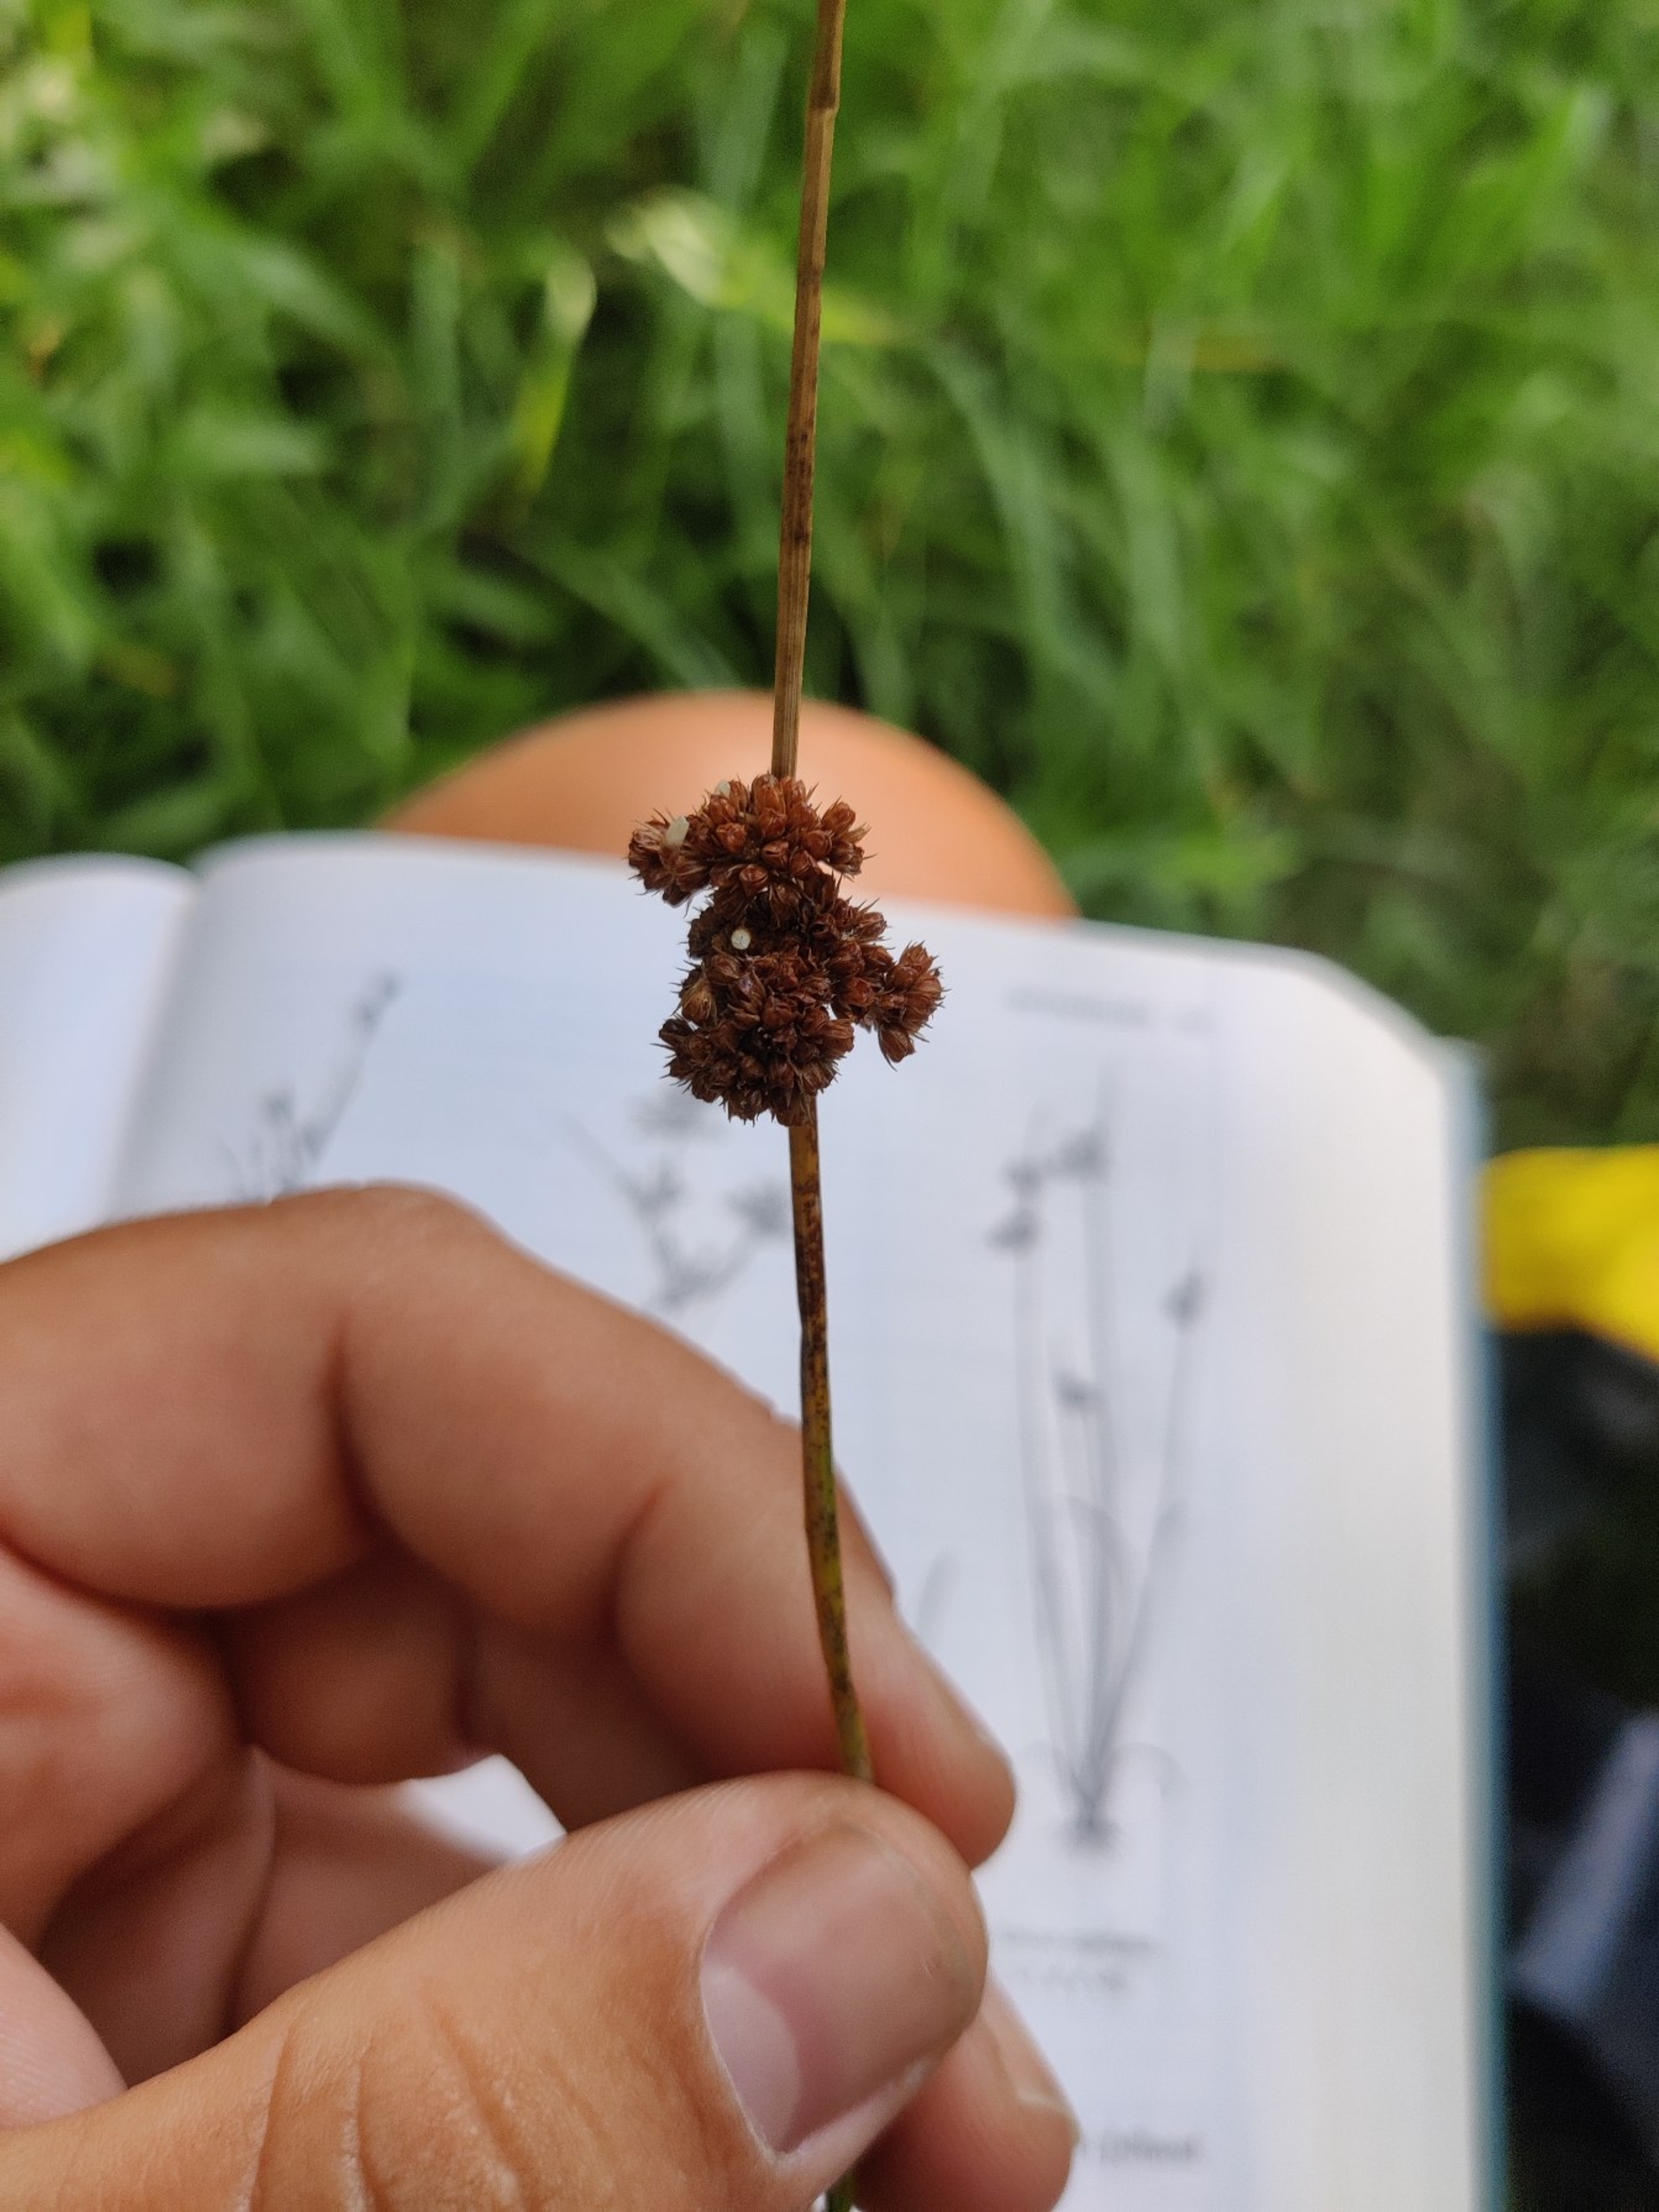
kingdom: Plantae
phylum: Tracheophyta
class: Liliopsida
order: Poales
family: Juncaceae
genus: Juncus
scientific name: Juncus conglomeratus
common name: Knop-siv
